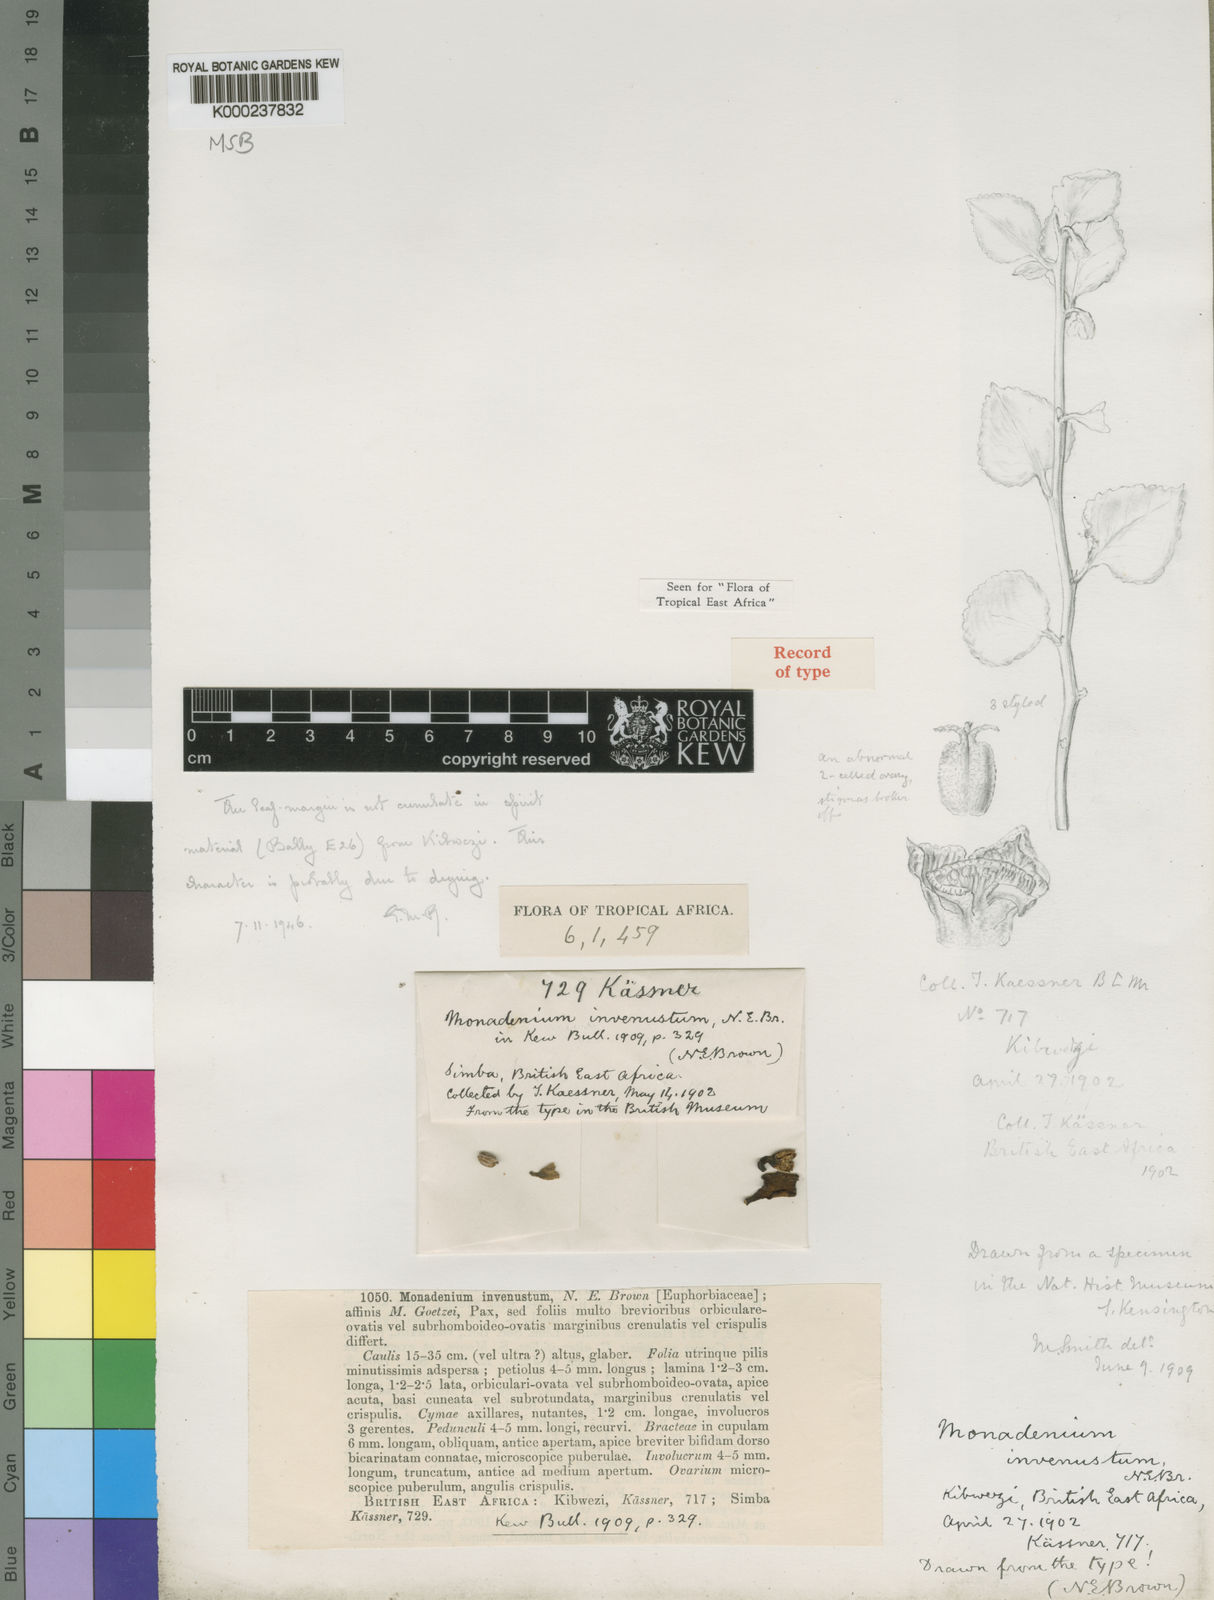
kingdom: Plantae
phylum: Tracheophyta
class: Magnoliopsida
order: Malpighiales
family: Euphorbiaceae
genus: Euphorbia
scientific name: Euphorbia invenusta
